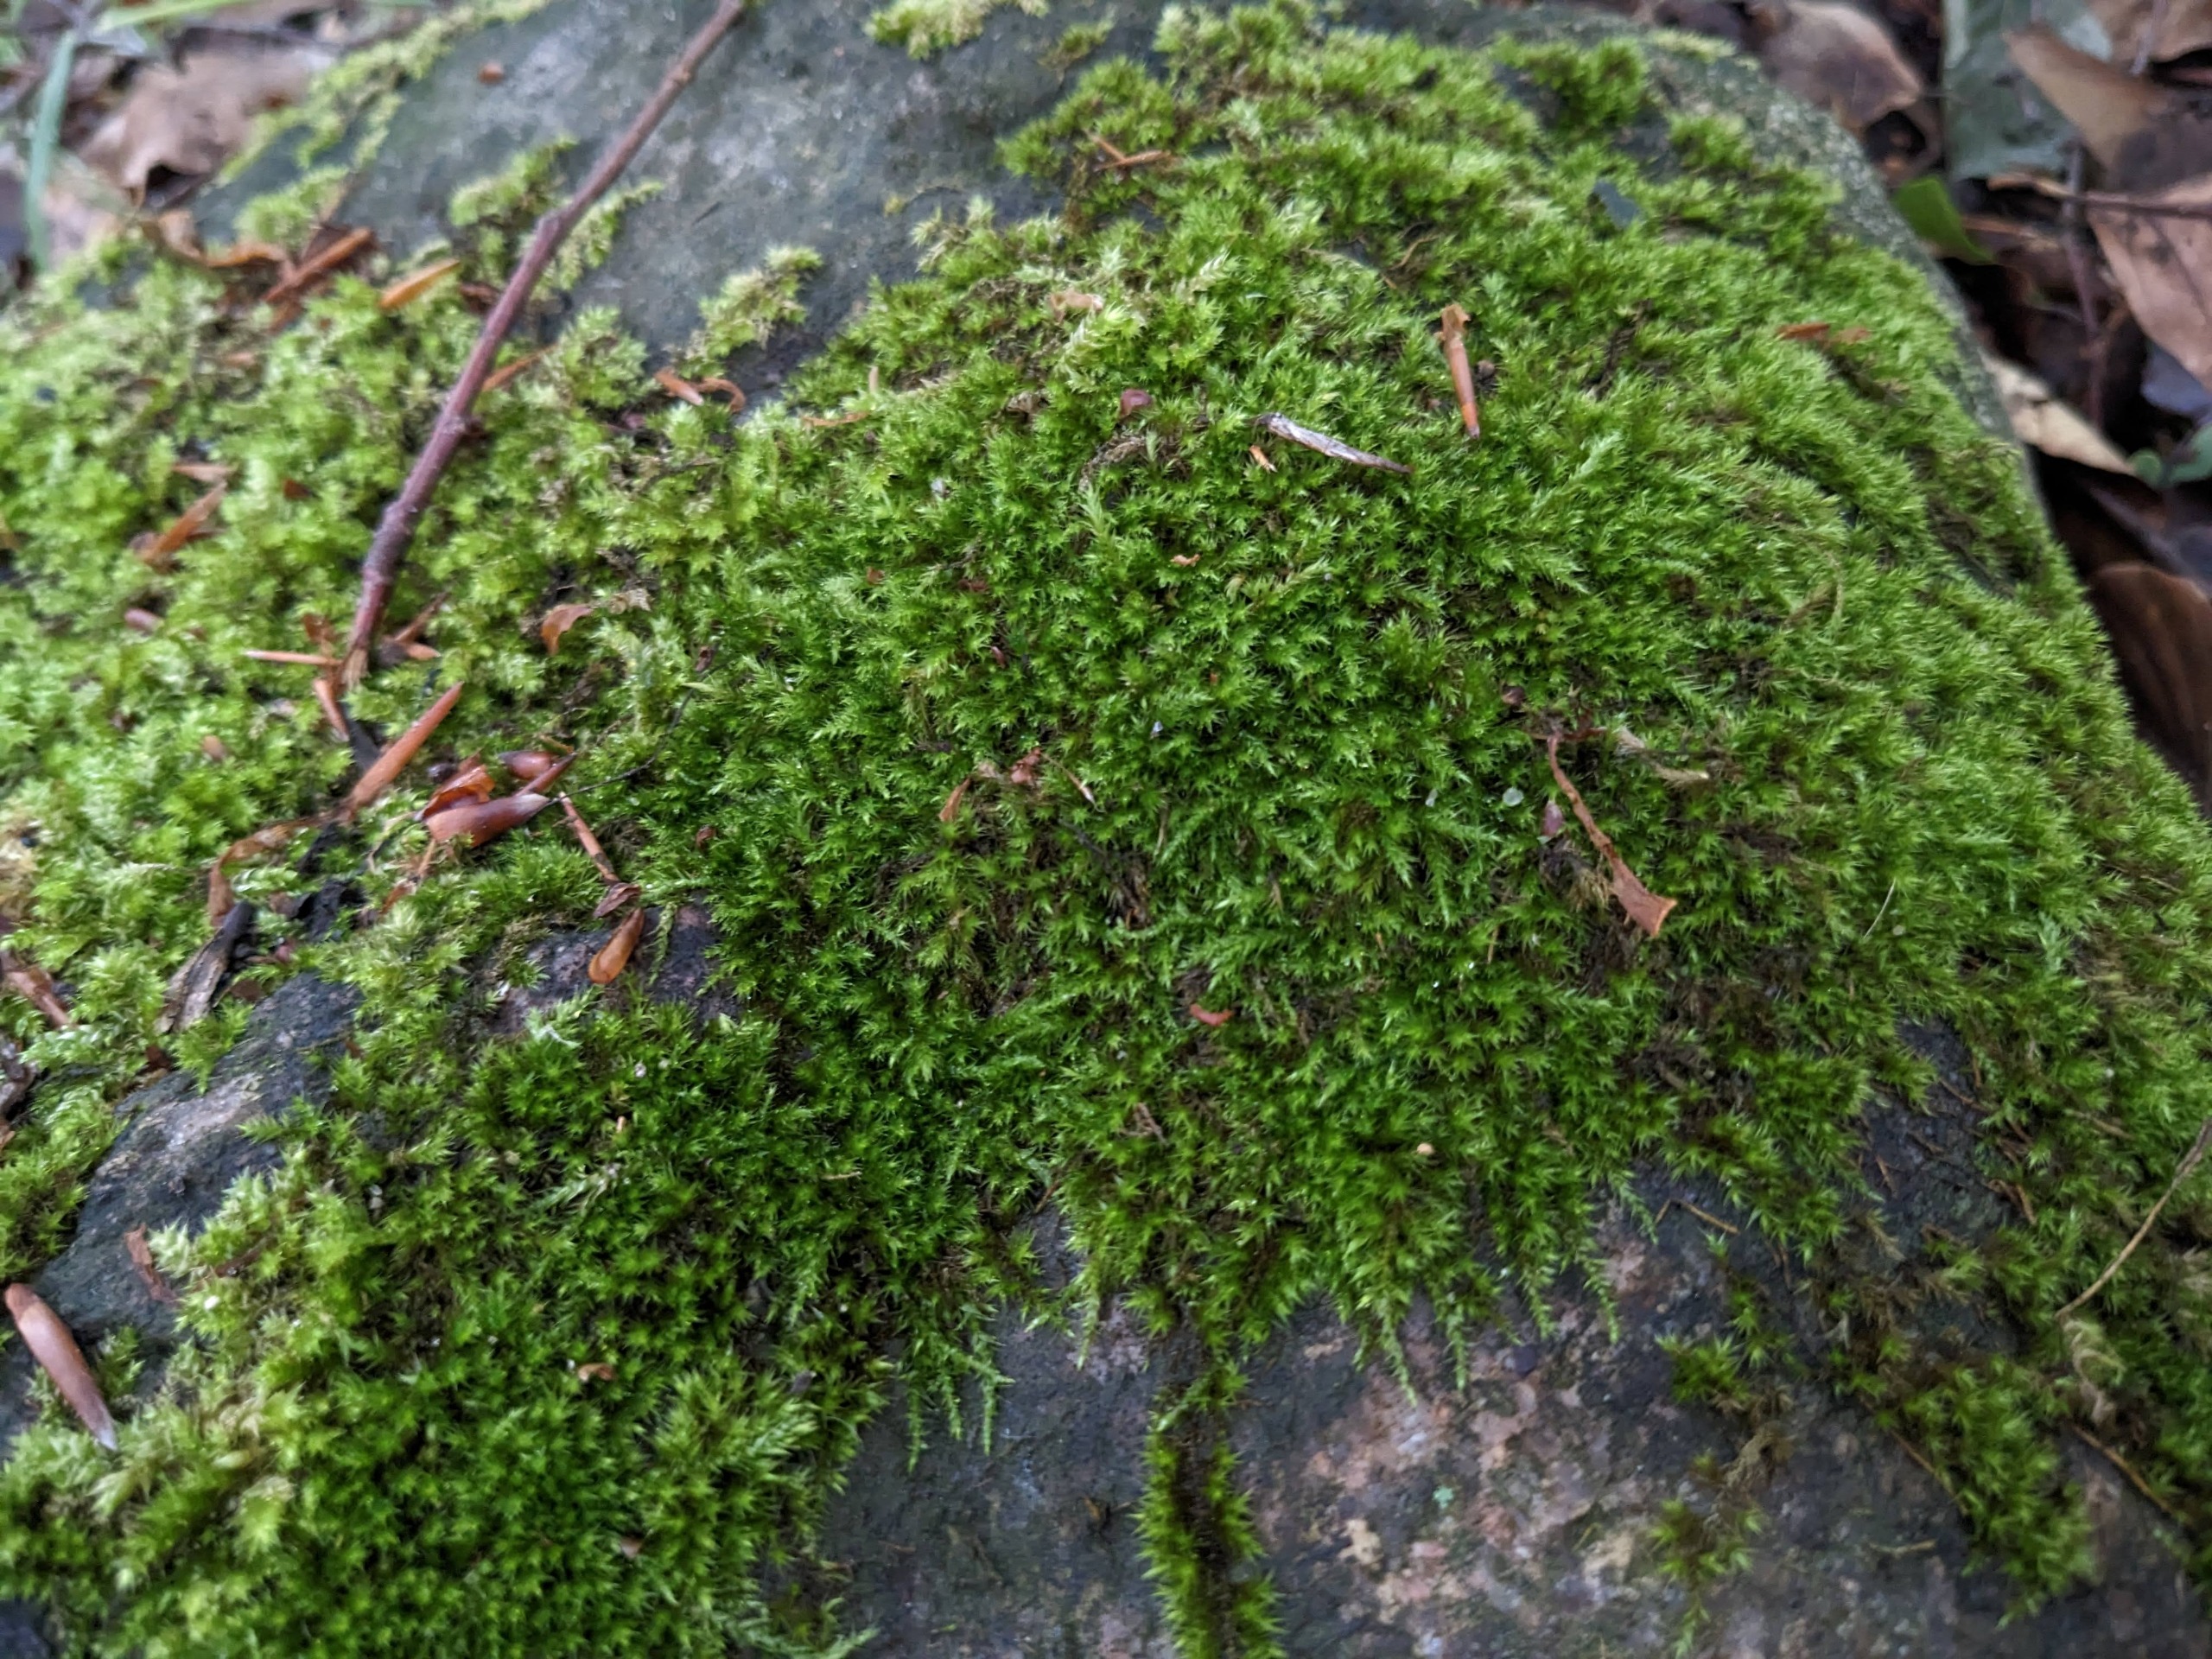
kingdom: Plantae
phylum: Bryophyta
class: Bryopsida
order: Hypnales
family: Brachytheciaceae
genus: Sciuro-hypnum
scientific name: Sciuro-hypnum populeum
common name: Park-kortkapsel
